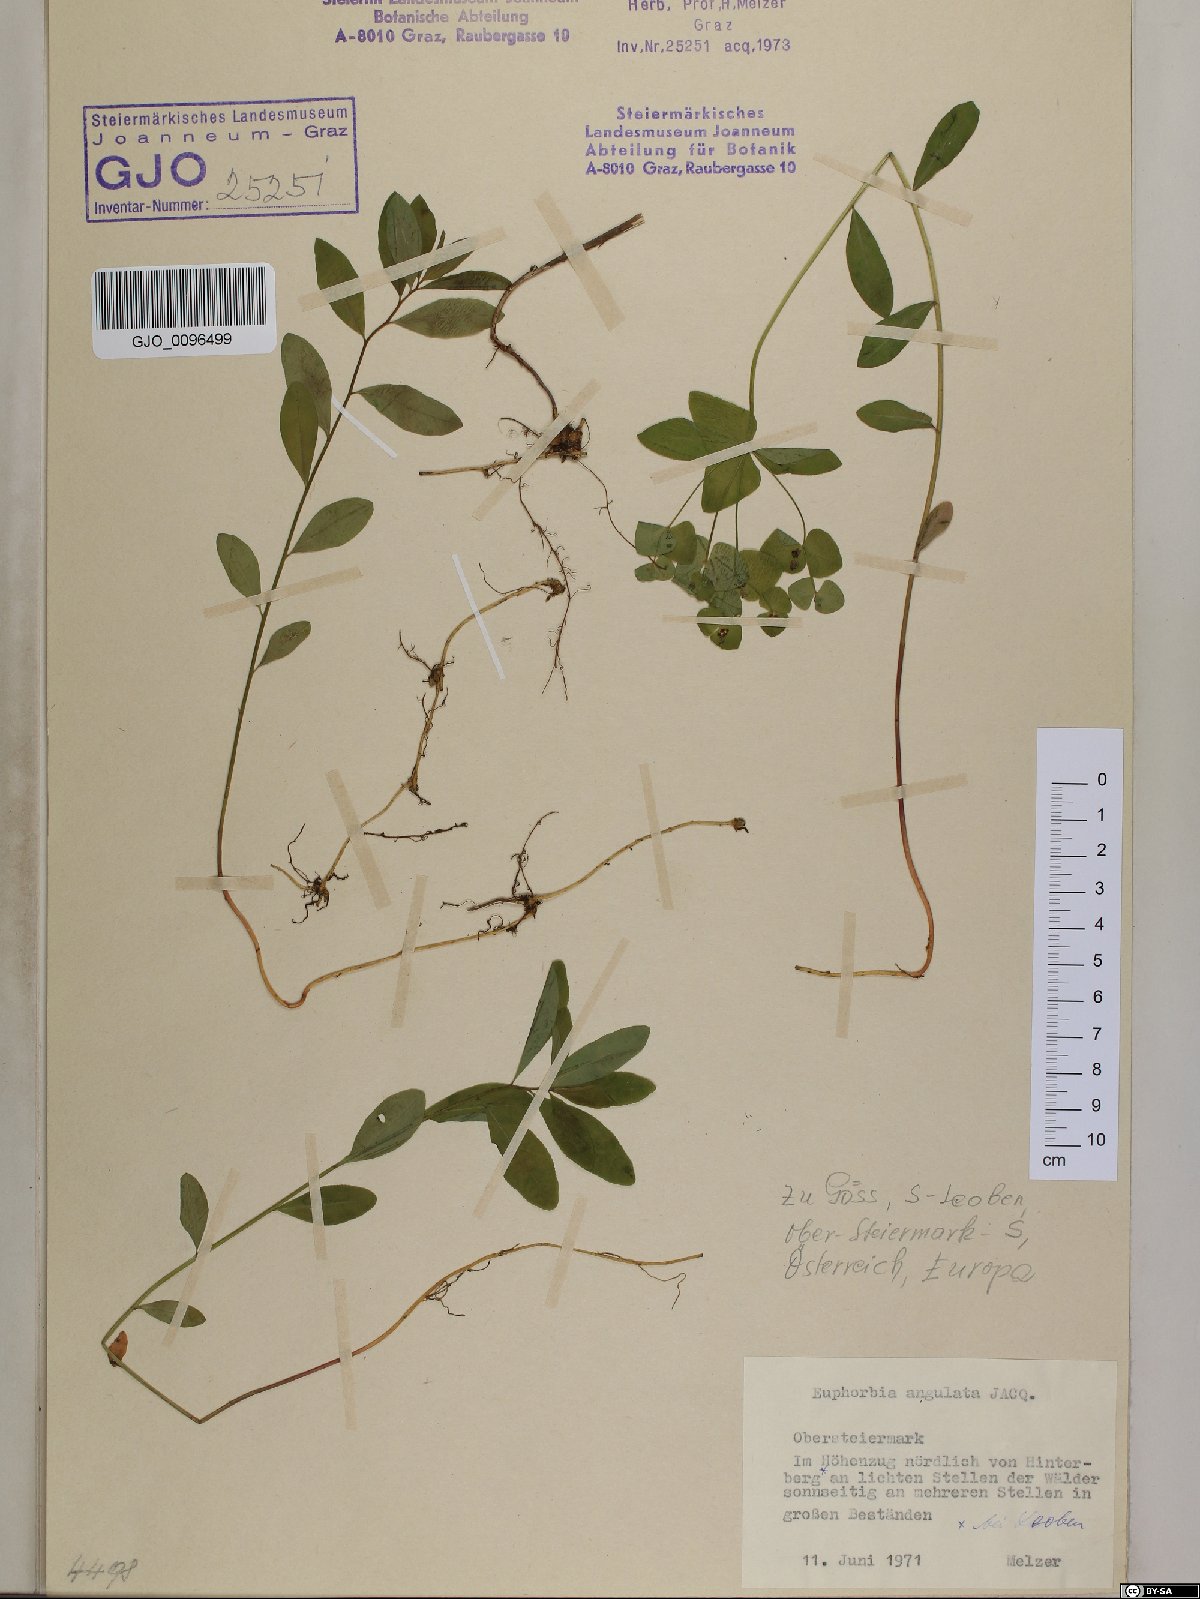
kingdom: Plantae
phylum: Tracheophyta
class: Magnoliopsida
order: Malpighiales
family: Euphorbiaceae
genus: Euphorbia
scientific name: Euphorbia angulata
